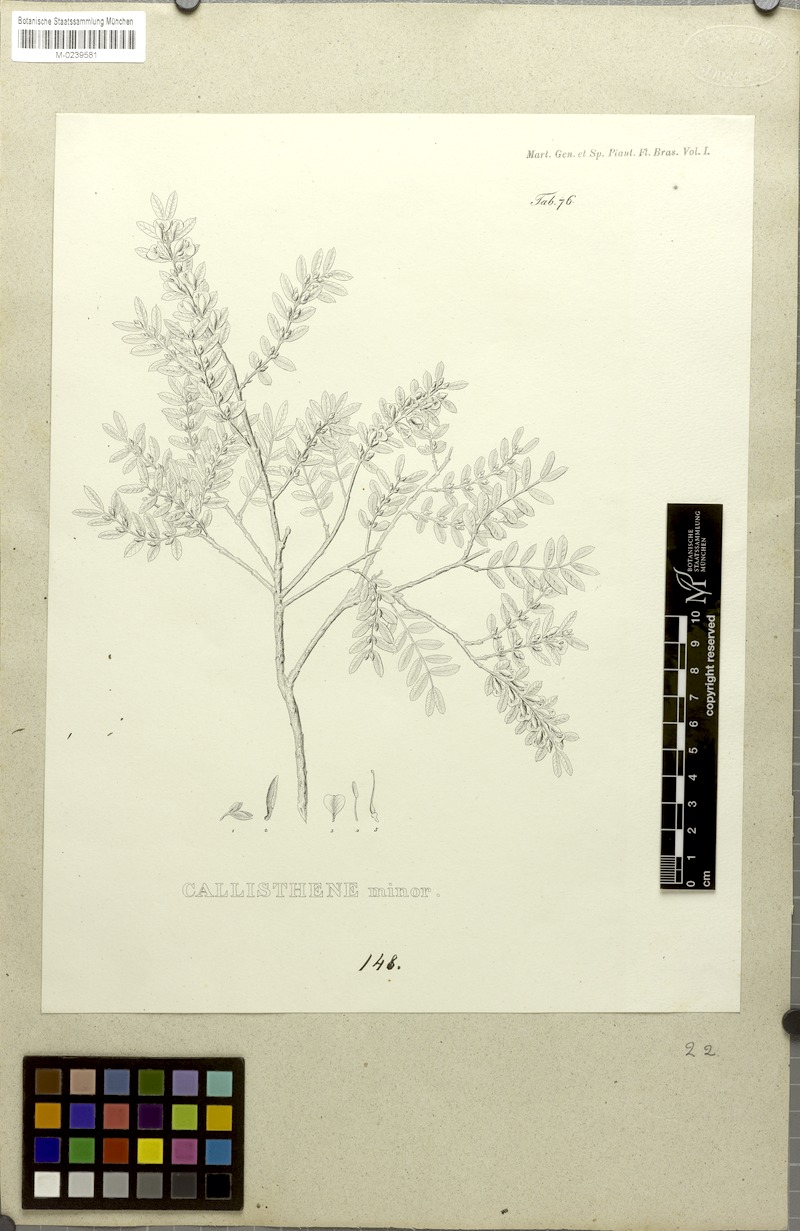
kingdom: Plantae
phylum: Tracheophyta
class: Magnoliopsida
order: Myrtales
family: Vochysiaceae
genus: Callisthene
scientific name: Callisthene minor
